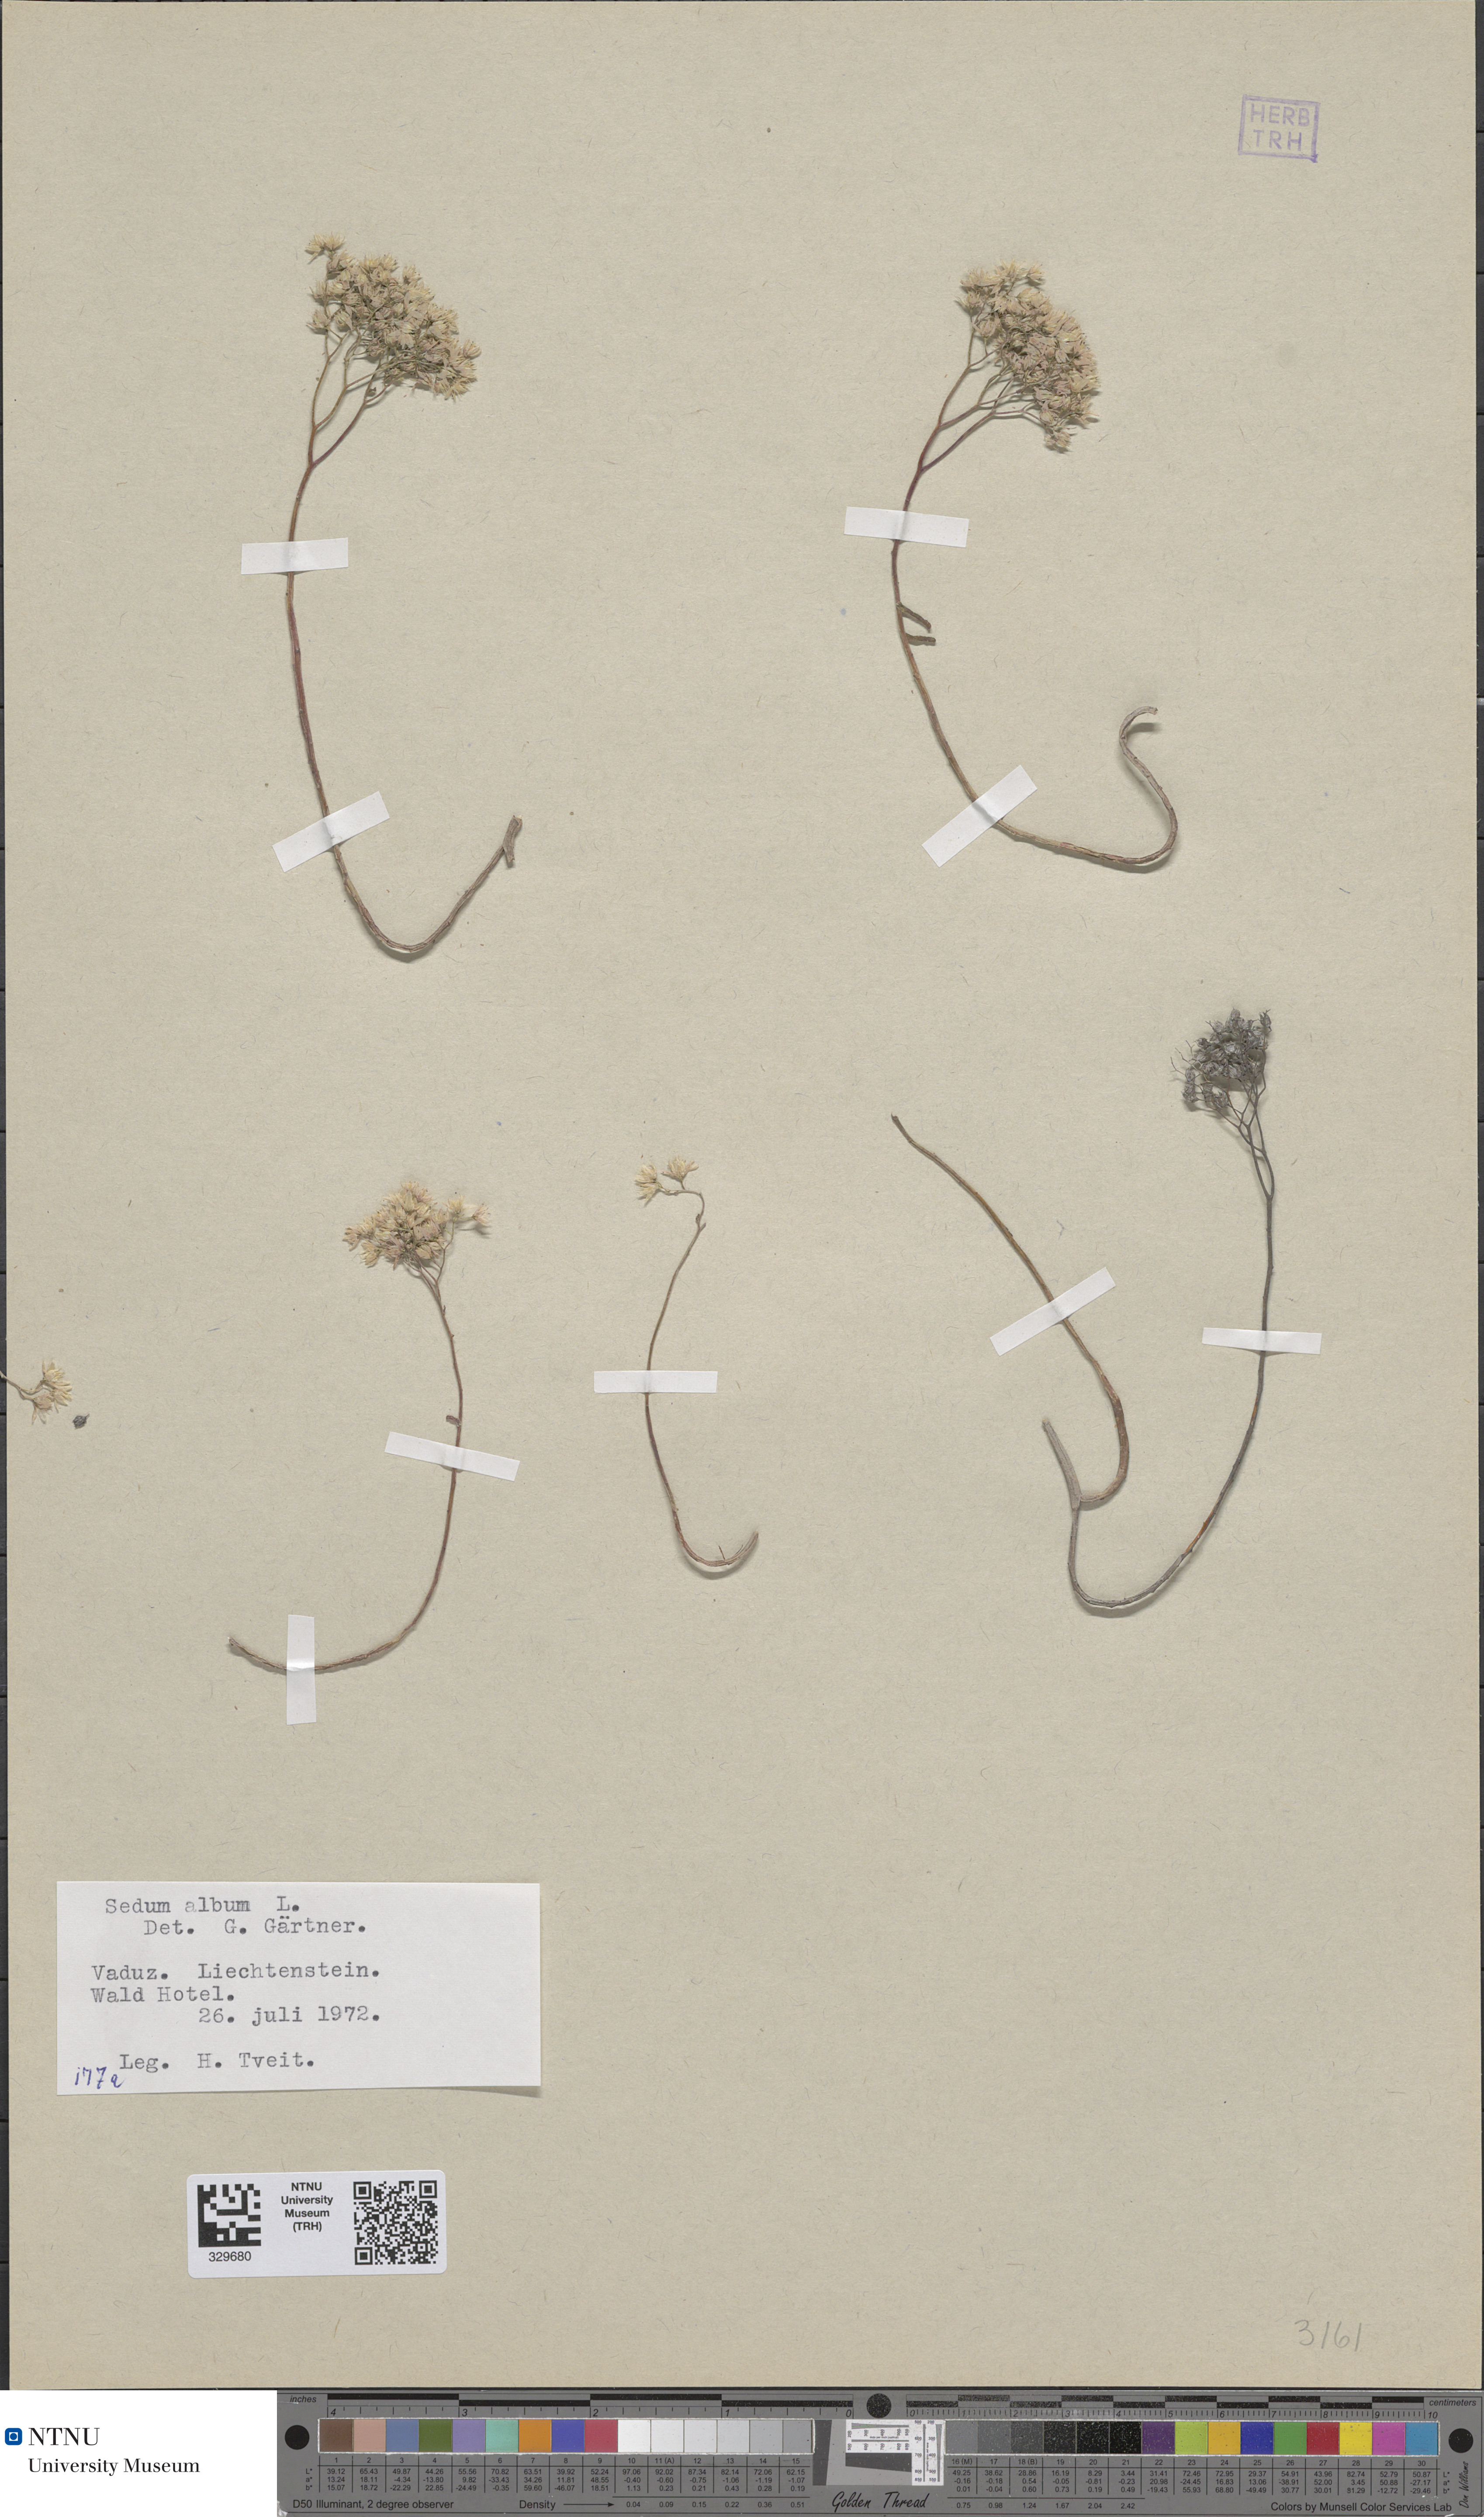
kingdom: Plantae
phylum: Tracheophyta
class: Magnoliopsida
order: Saxifragales
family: Crassulaceae
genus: Sedum
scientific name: Sedum album
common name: White stonecrop
